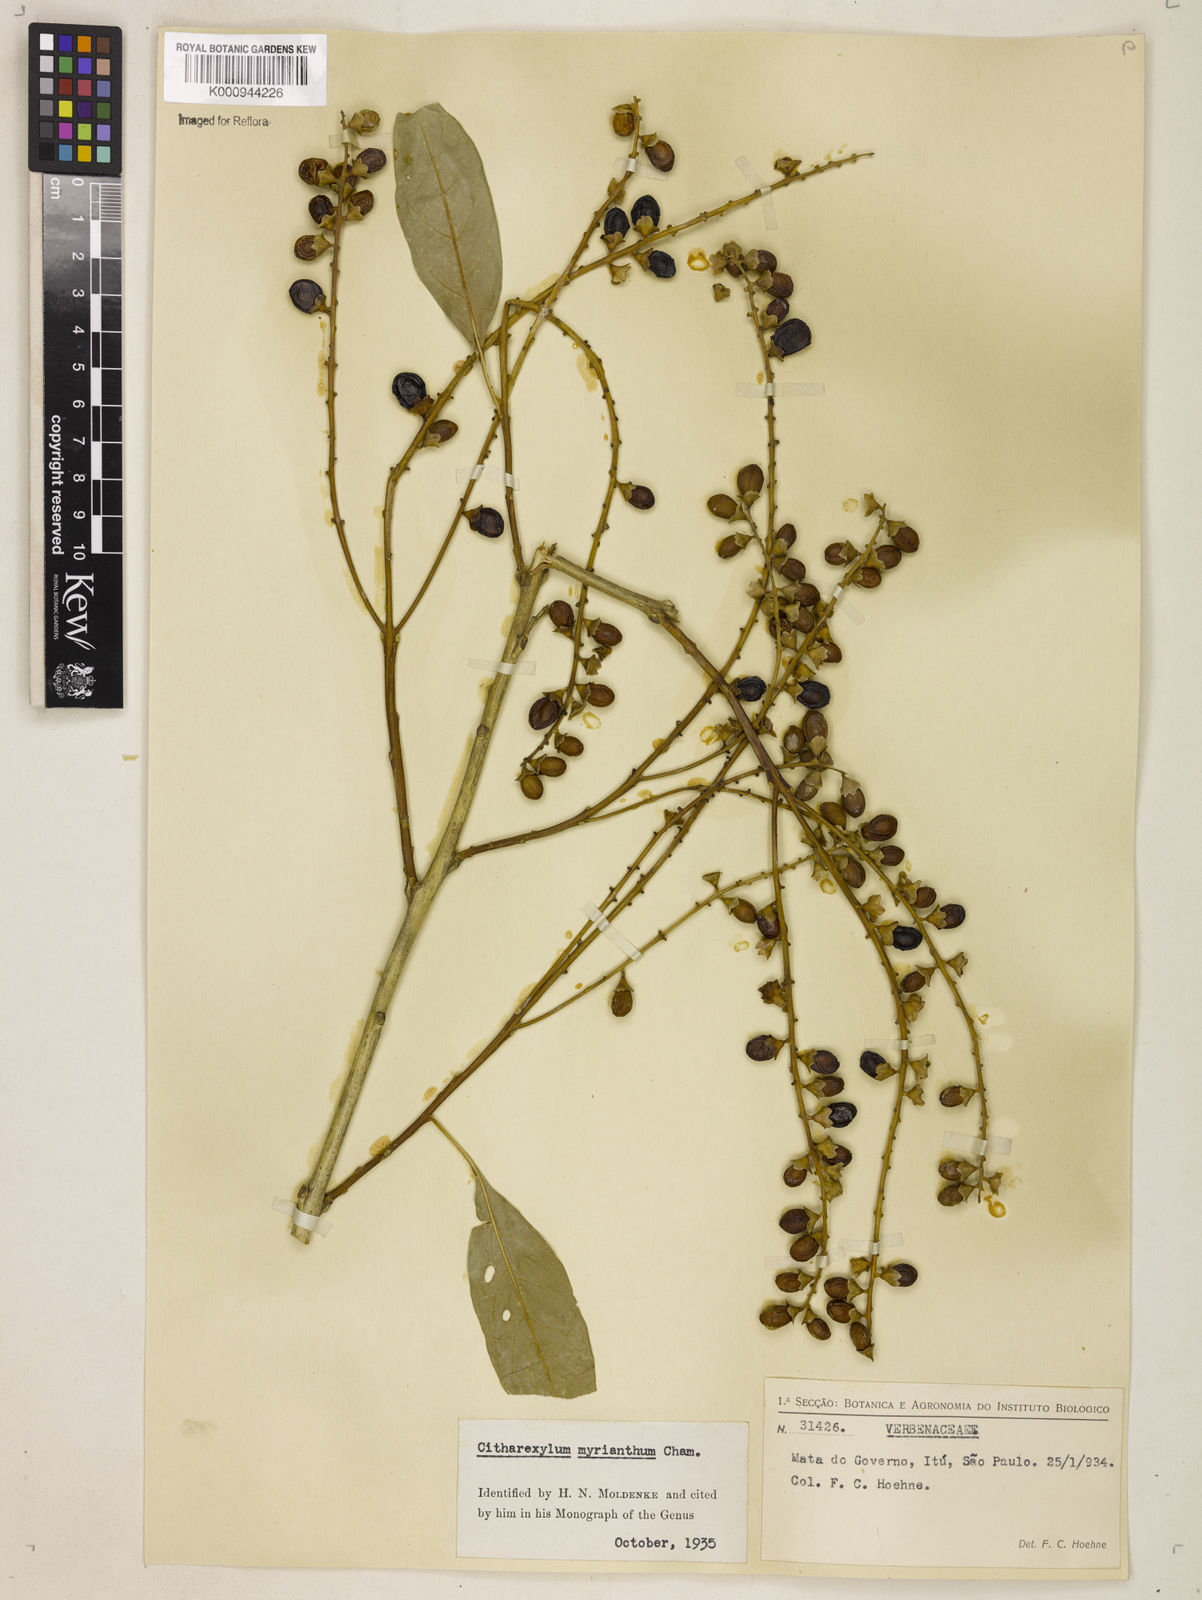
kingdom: Plantae
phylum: Tracheophyta
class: Magnoliopsida
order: Lamiales
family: Verbenaceae
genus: Citharexylum
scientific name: Citharexylum myrianthum
